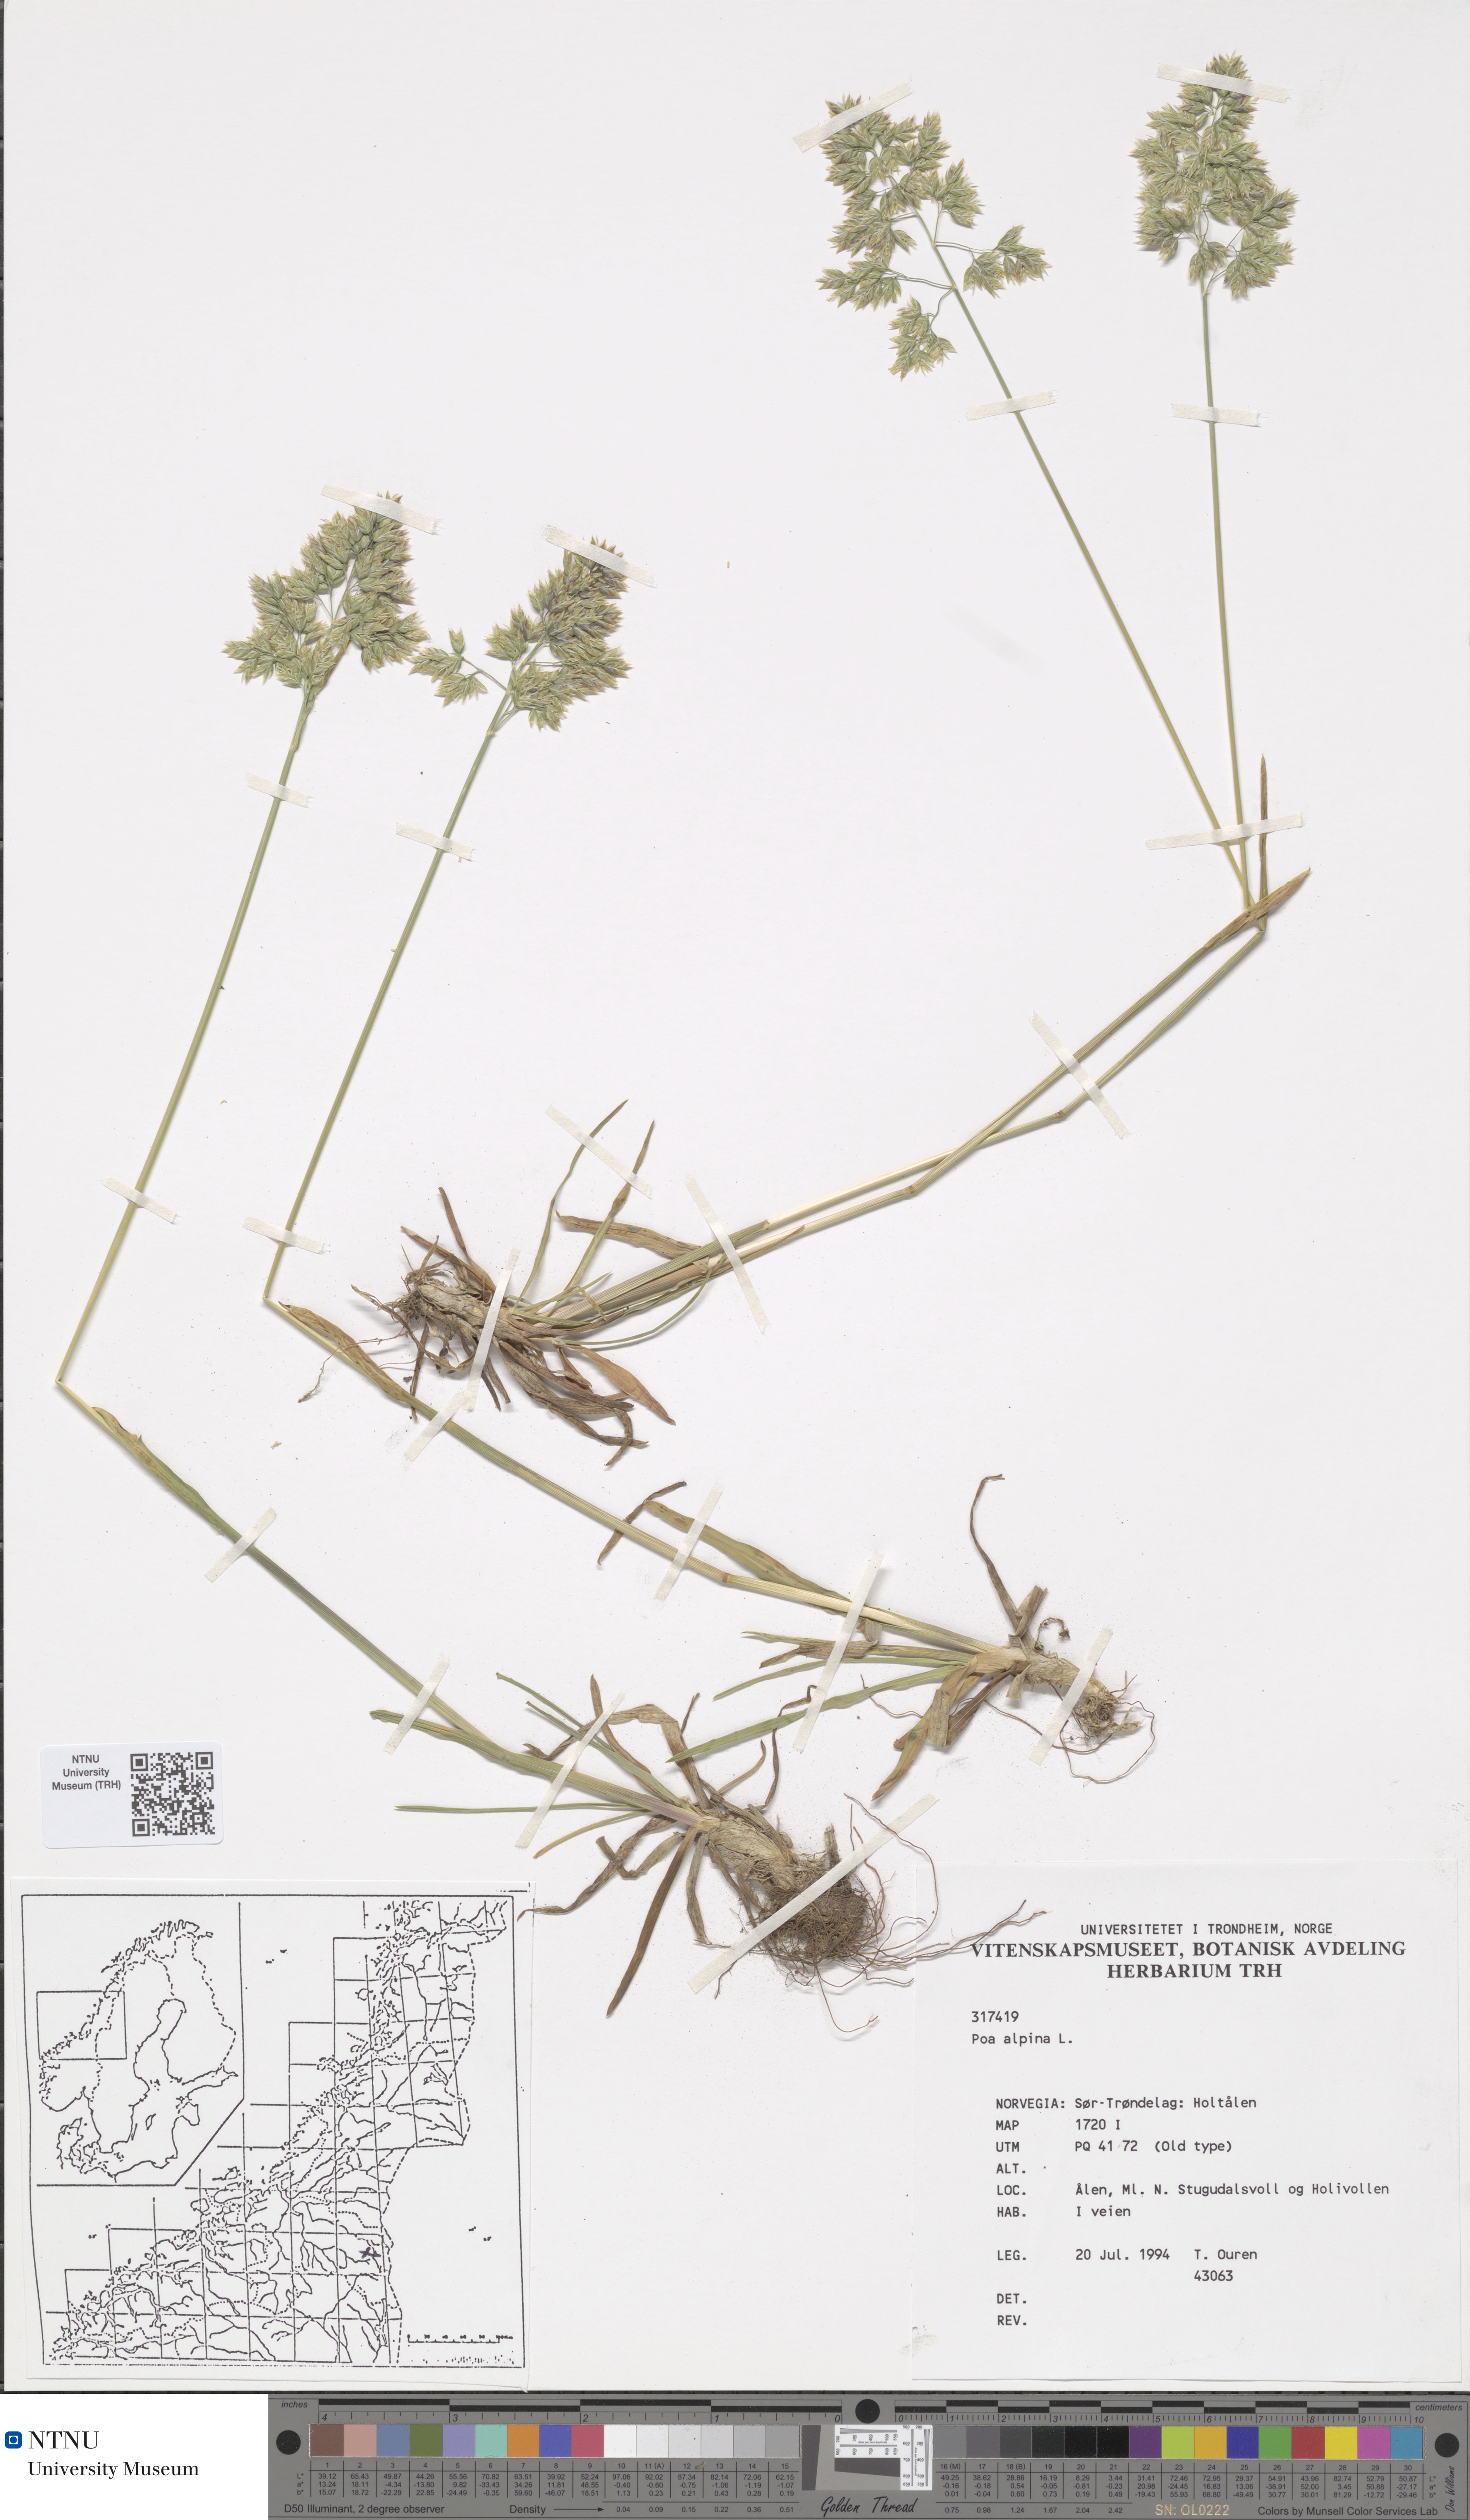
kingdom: Plantae
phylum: Tracheophyta
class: Liliopsida
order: Poales
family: Poaceae
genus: Poa
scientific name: Poa alpina
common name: Alpine bluegrass
